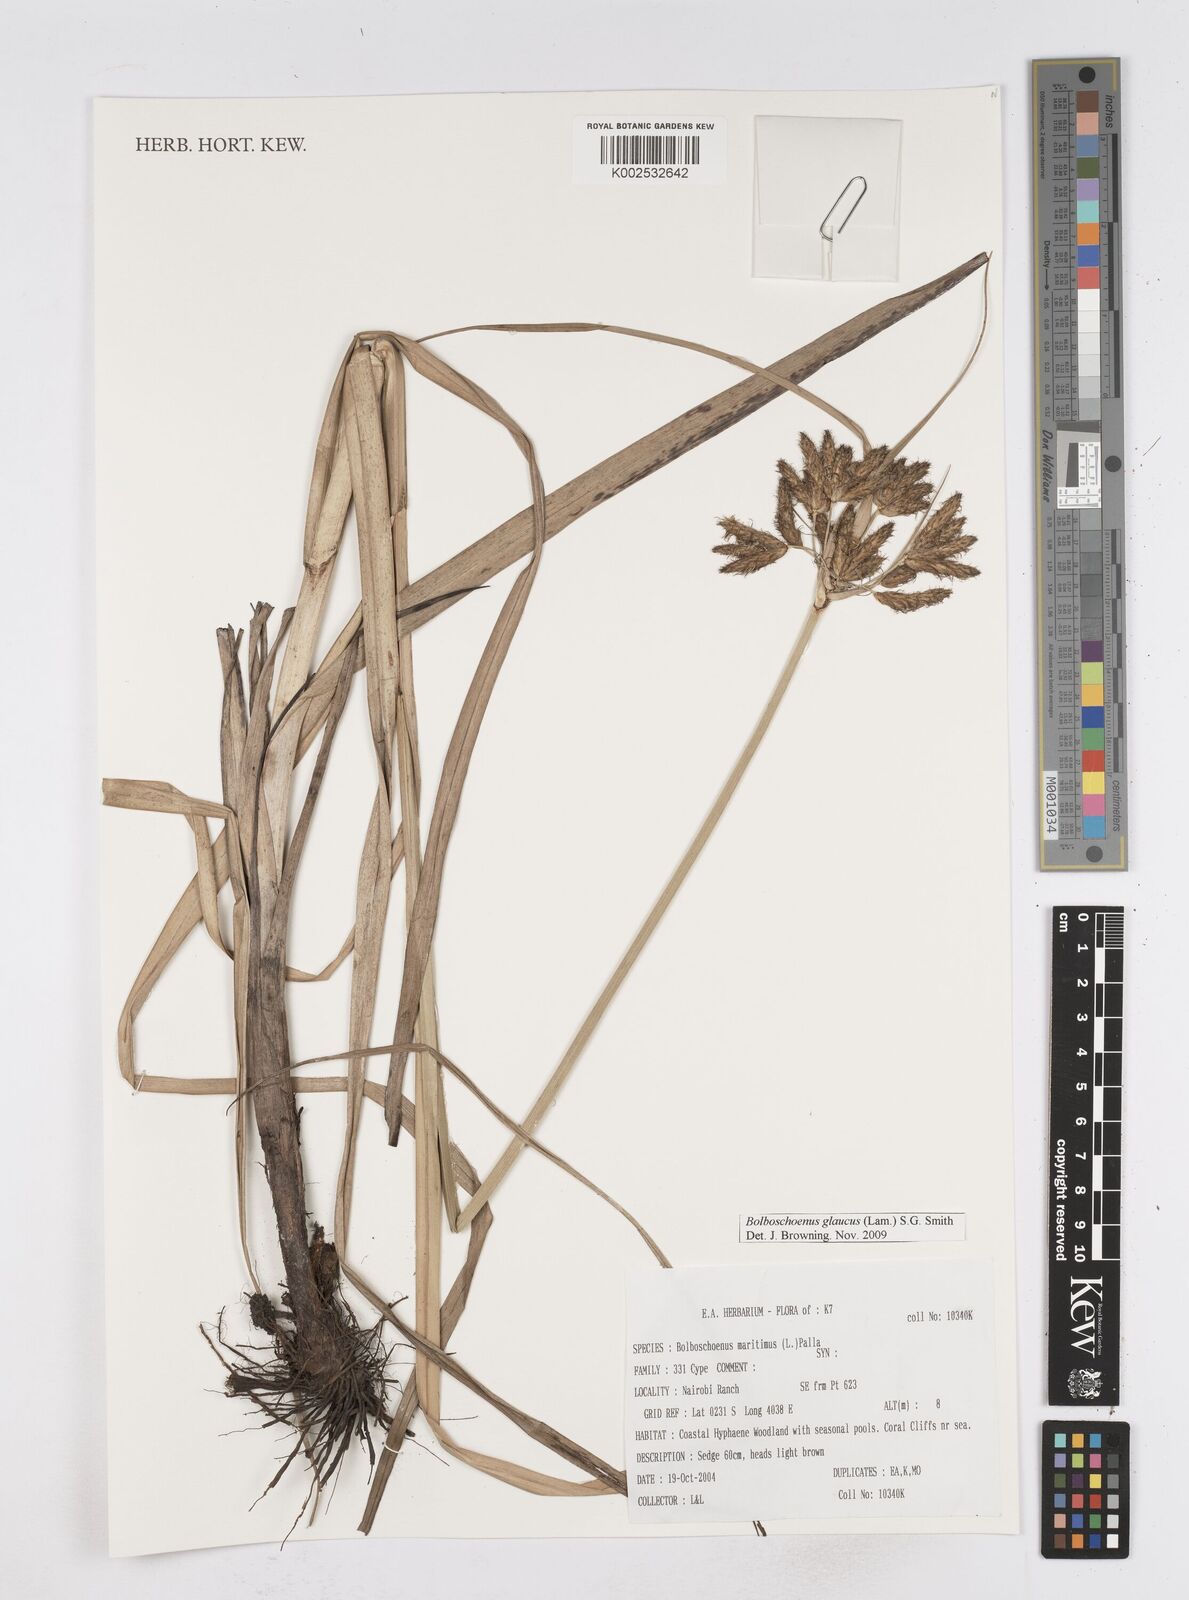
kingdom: Plantae
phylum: Tracheophyta
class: Liliopsida
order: Poales
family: Cyperaceae
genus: Bolboschoenus
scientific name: Bolboschoenus glaucus
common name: Tuberous bulrush
